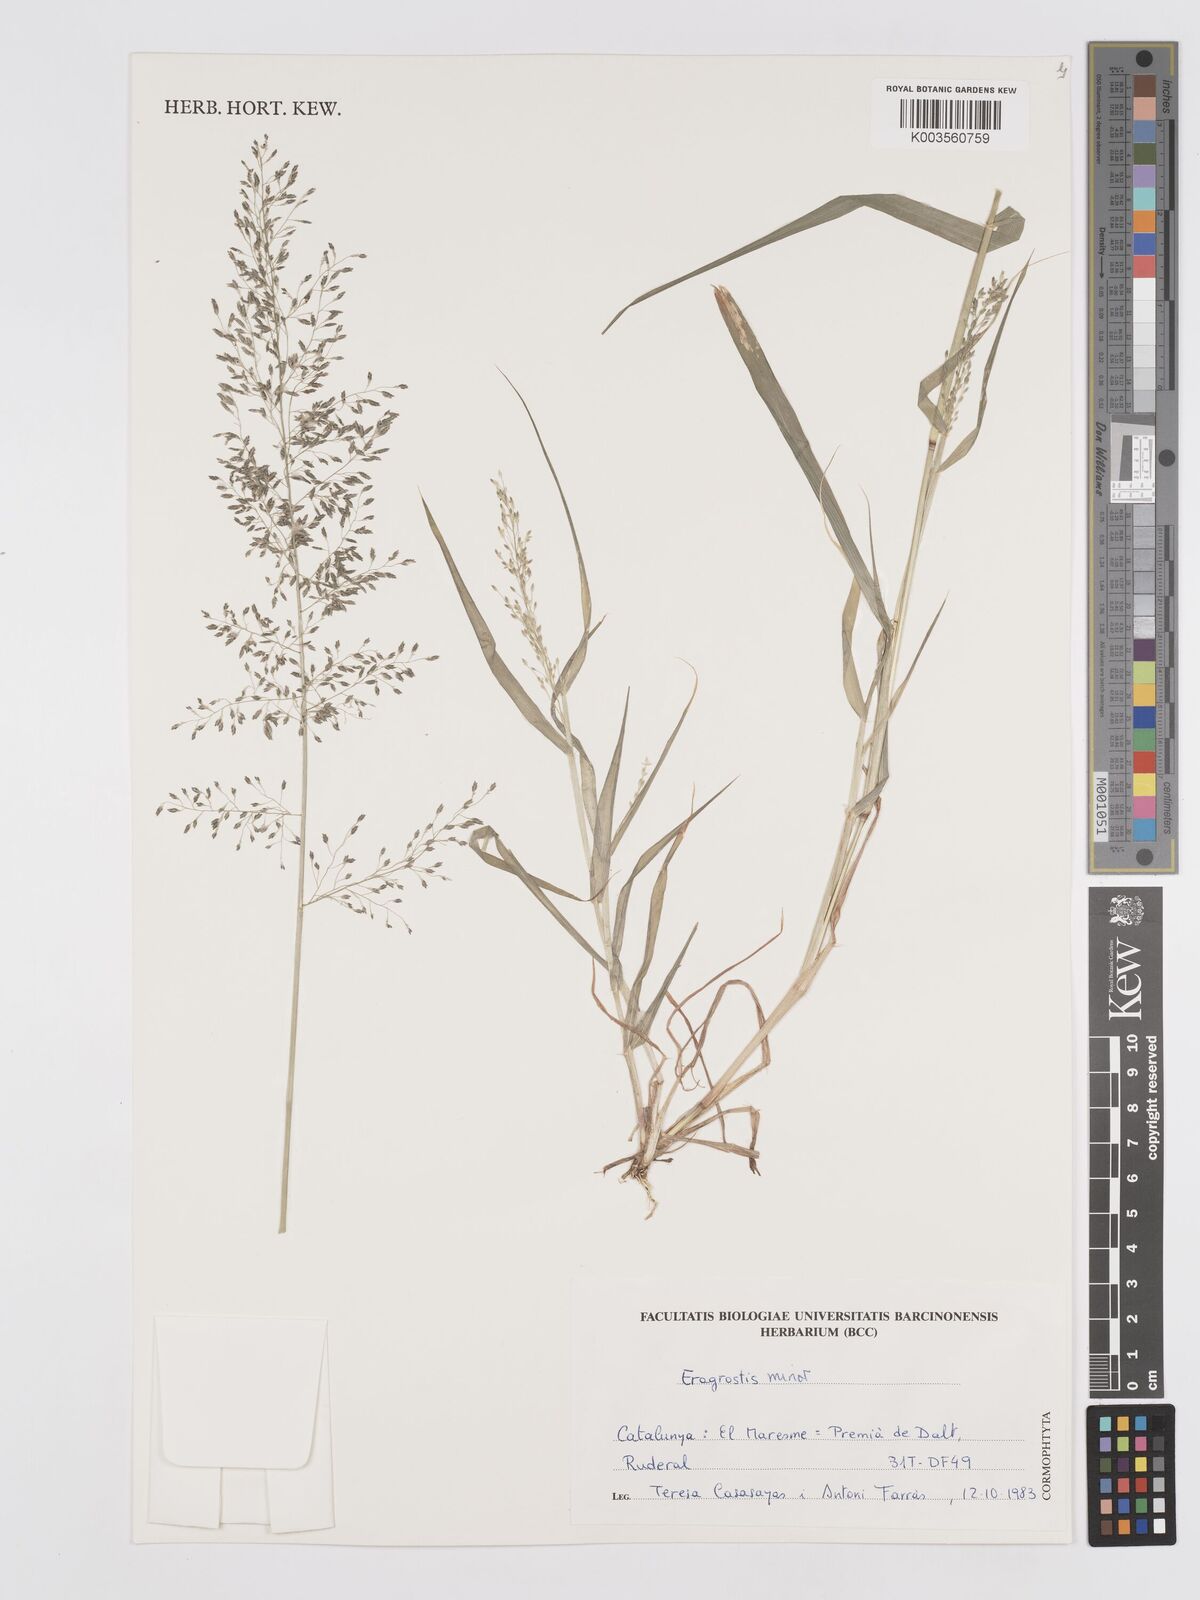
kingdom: Plantae
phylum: Tracheophyta
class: Liliopsida
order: Poales
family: Poaceae
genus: Eragrostis
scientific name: Eragrostis minor
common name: Small love-grass
